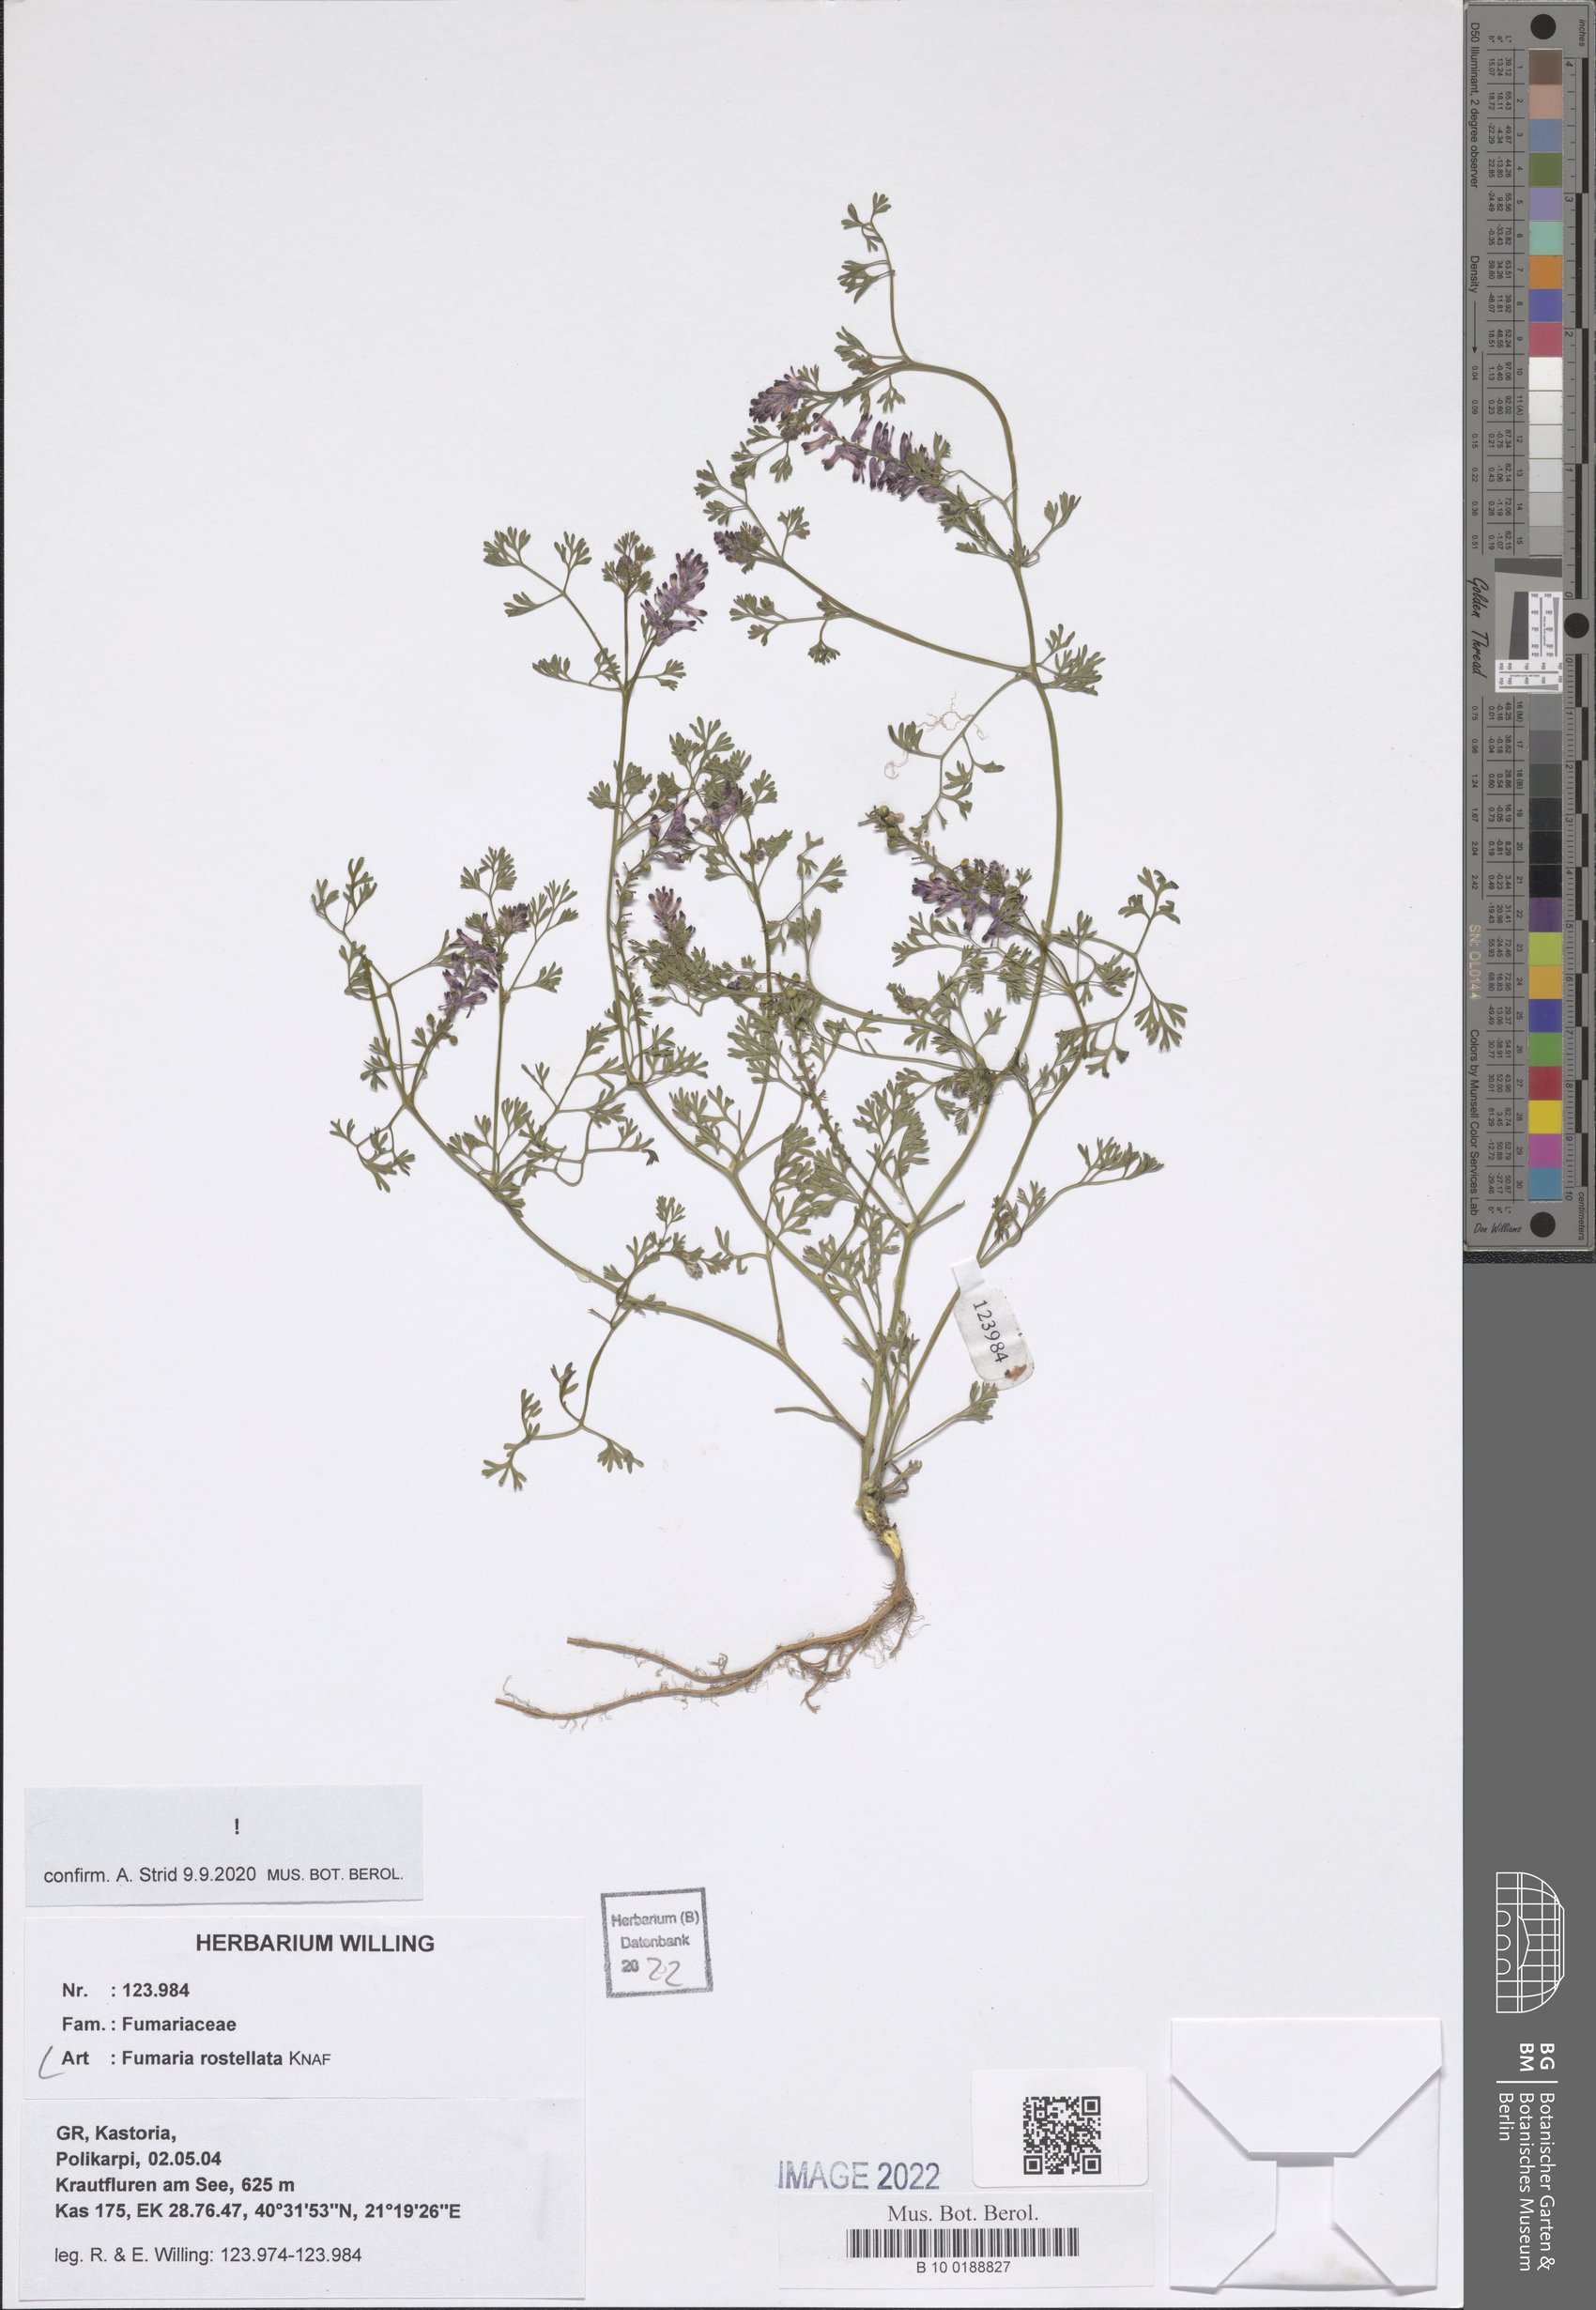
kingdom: Plantae
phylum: Tracheophyta
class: Magnoliopsida
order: Ranunculales
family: Papaveraceae
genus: Fumaria
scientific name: Fumaria rostellata
